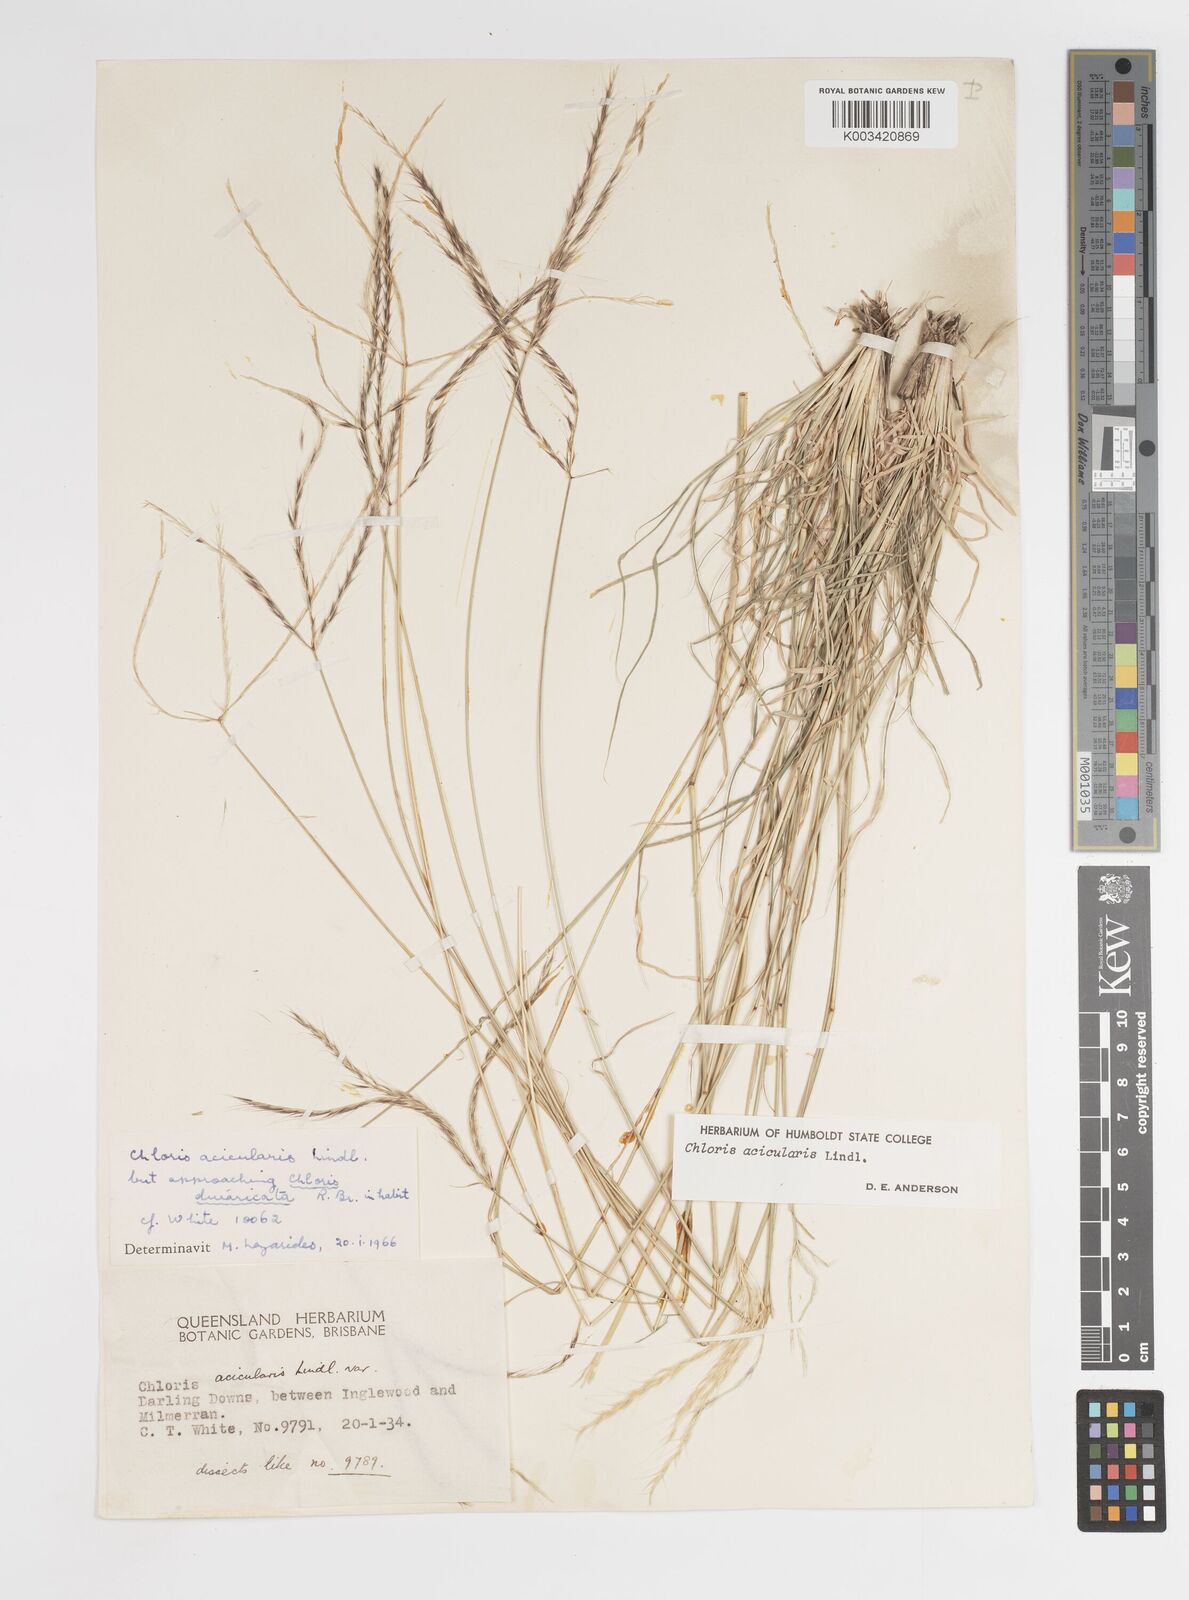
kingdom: Plantae
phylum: Tracheophyta
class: Liliopsida
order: Poales
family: Poaceae
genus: Enteropogon
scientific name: Enteropogon acicularis
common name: Curly windmill grass
